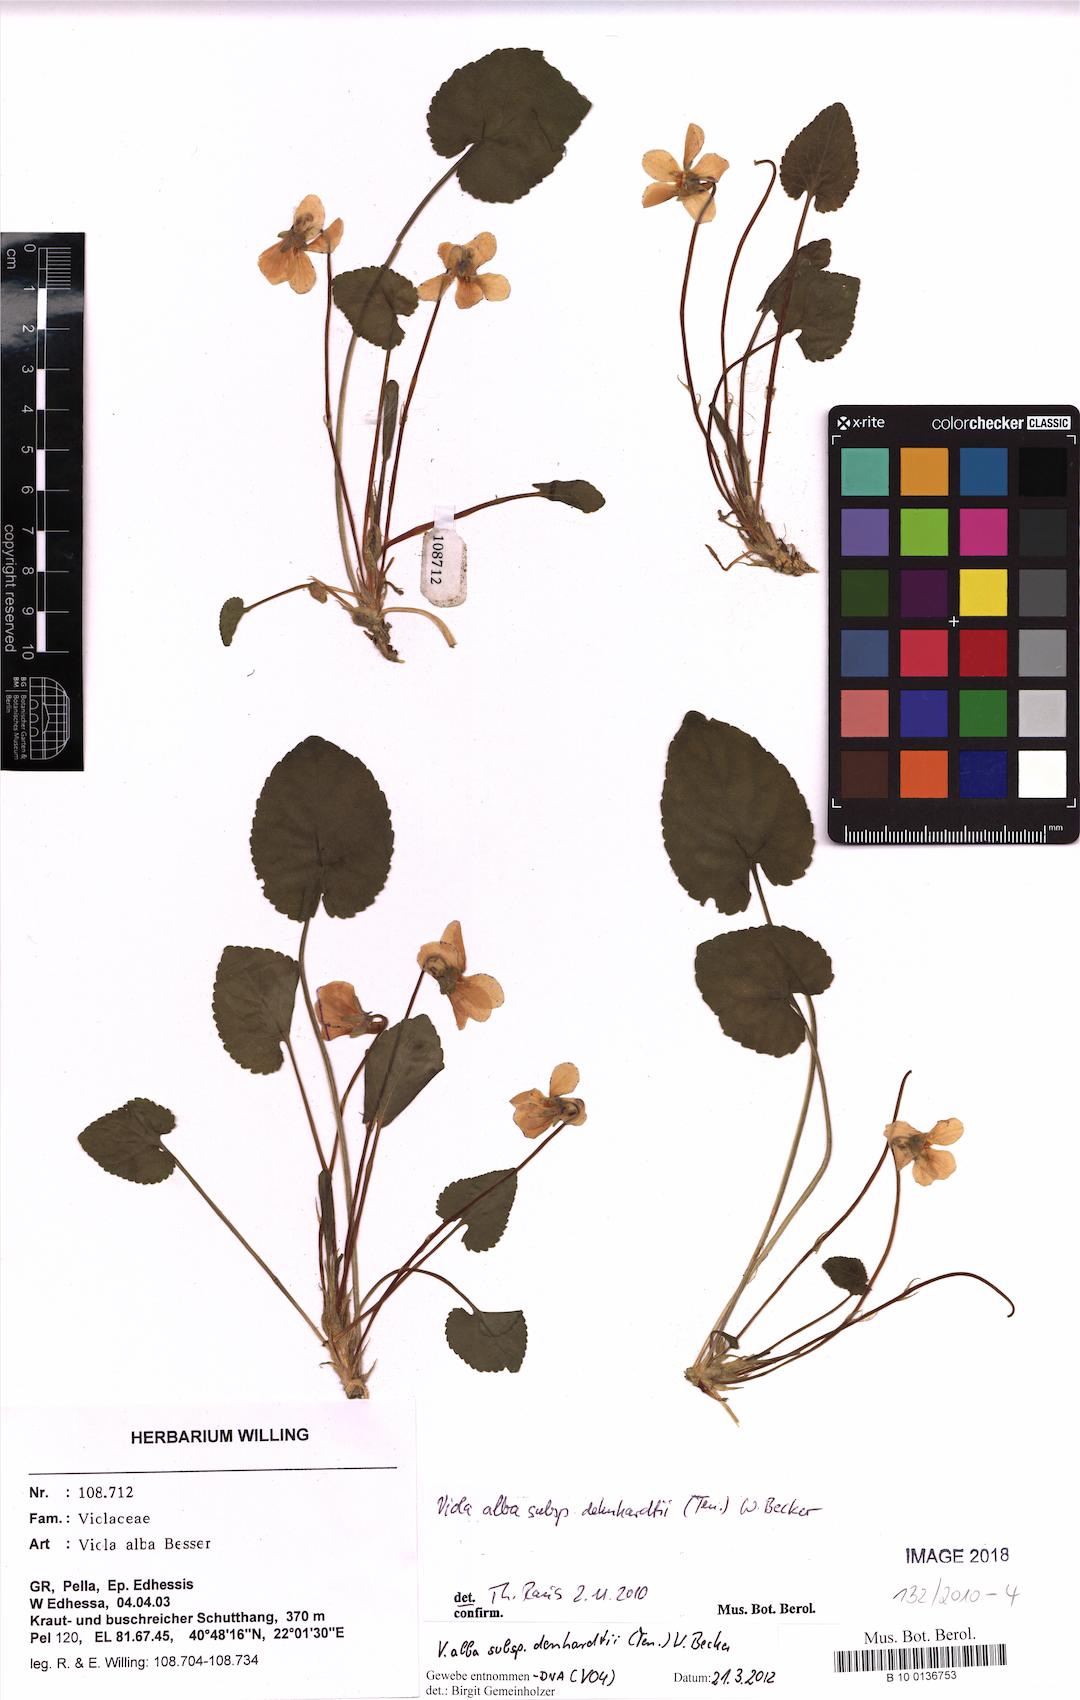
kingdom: Plantae
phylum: Tracheophyta
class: Magnoliopsida
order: Malpighiales
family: Violaceae
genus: Viola
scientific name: Viola alba
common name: White violet
